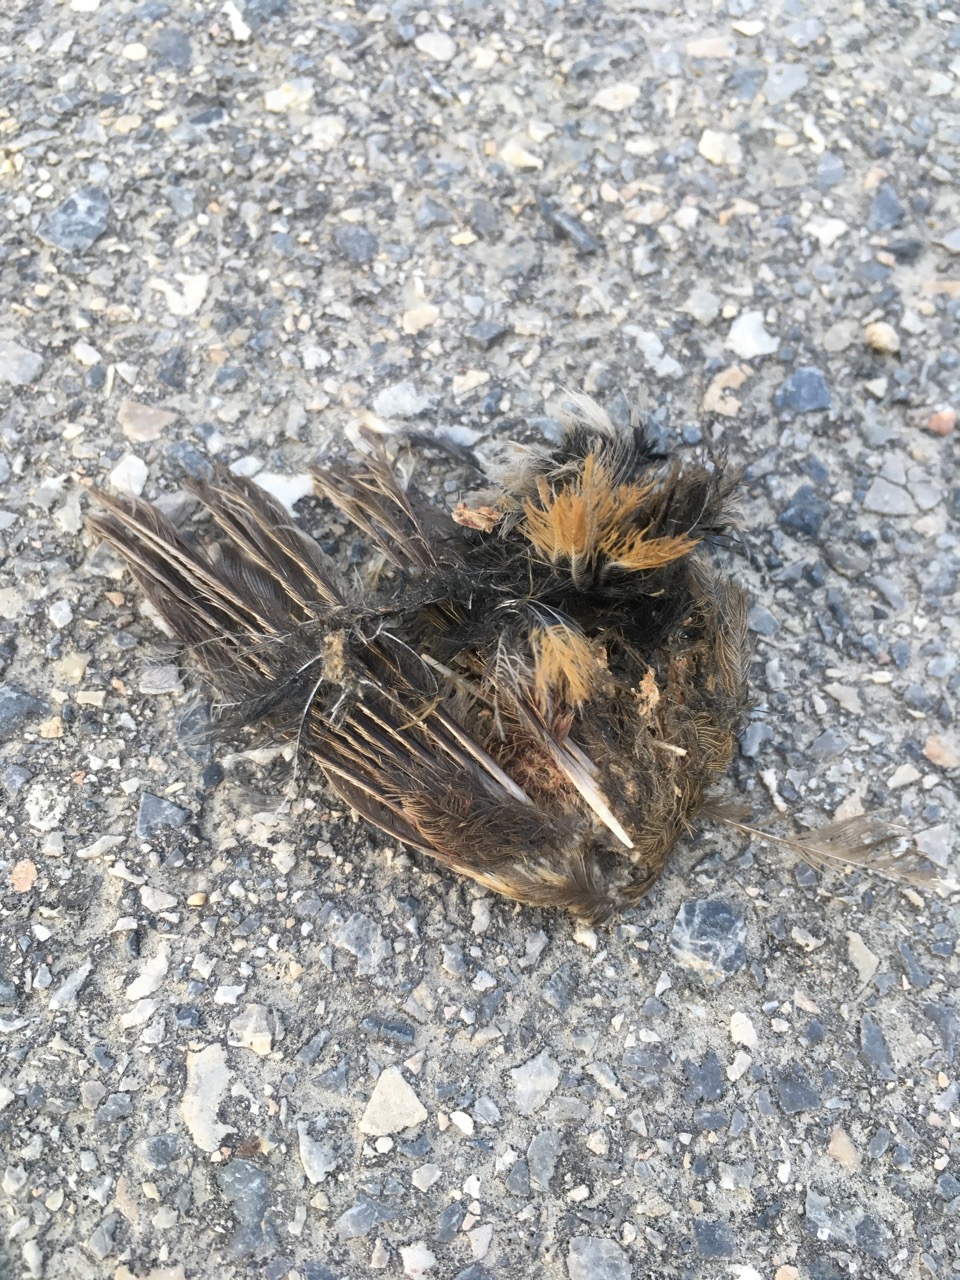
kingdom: Animalia
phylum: Chordata
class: Aves
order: Passeriformes
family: Muscicapidae
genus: Phoenicurus
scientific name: Phoenicurus
